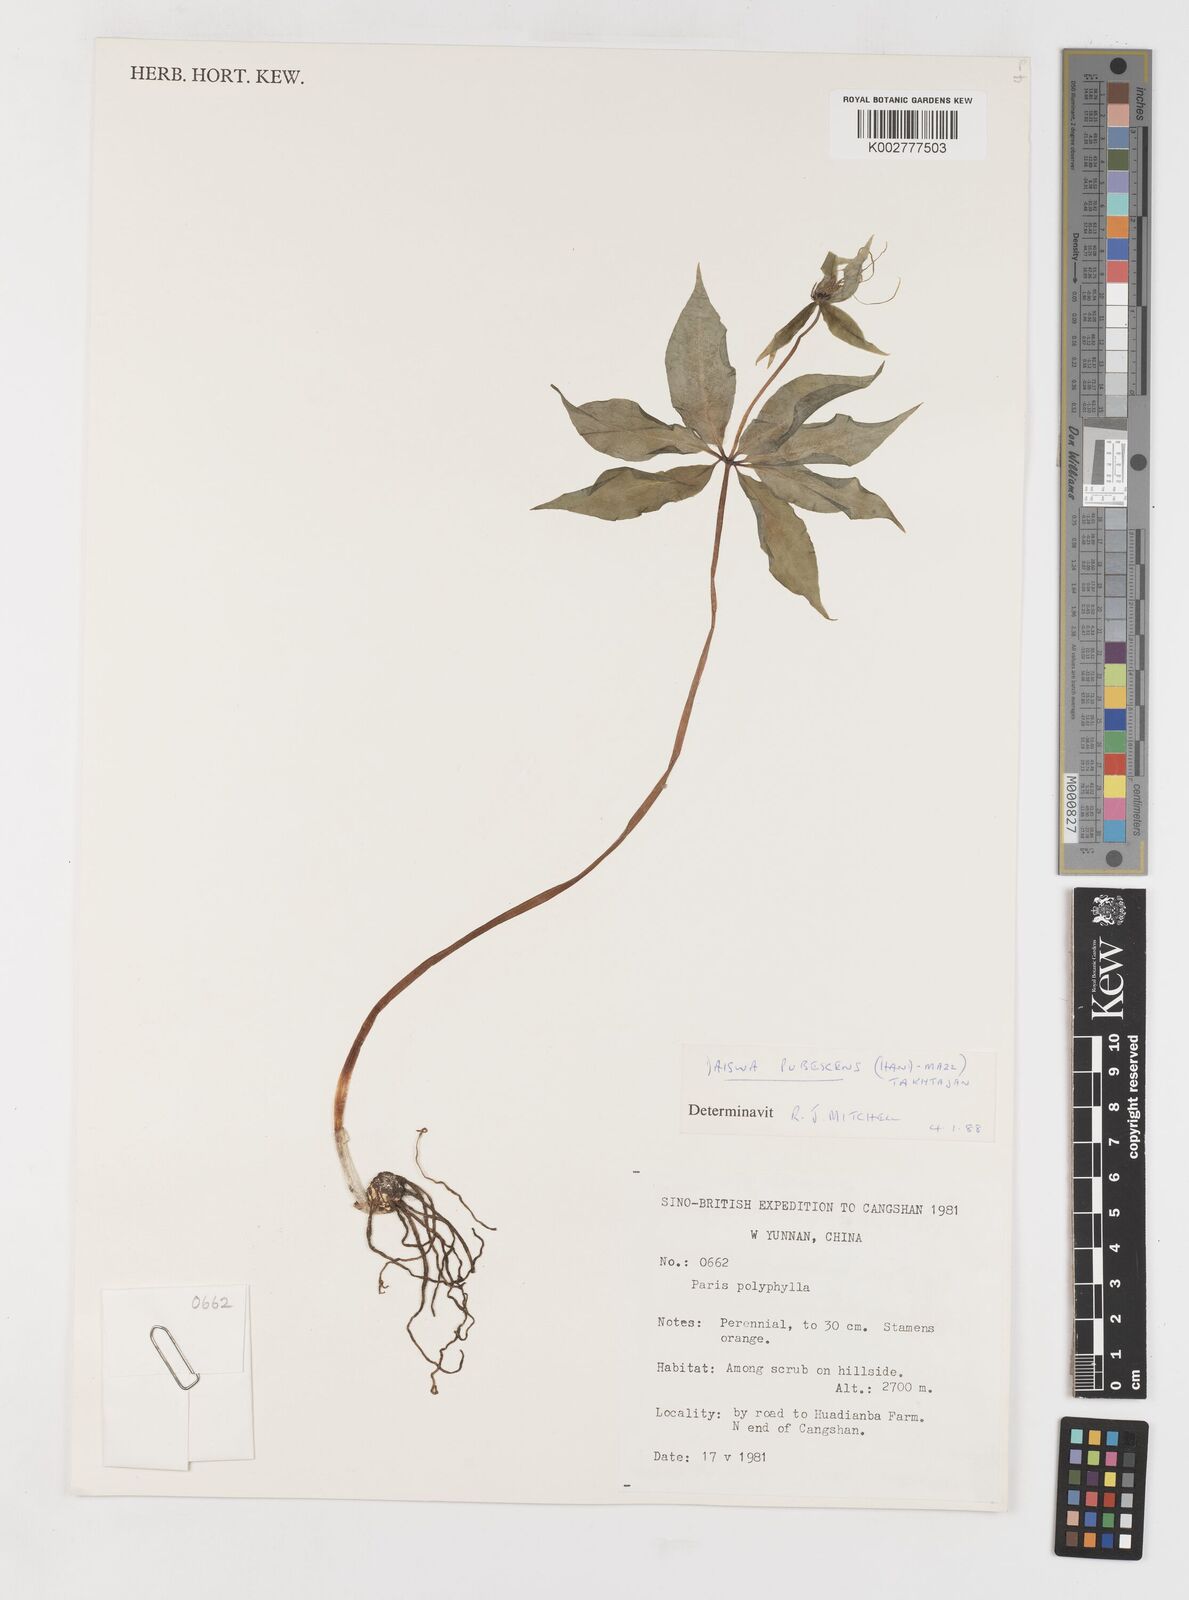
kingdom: Plantae
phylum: Tracheophyta
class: Liliopsida
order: Liliales
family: Melanthiaceae
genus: Paris
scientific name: Paris mairei
